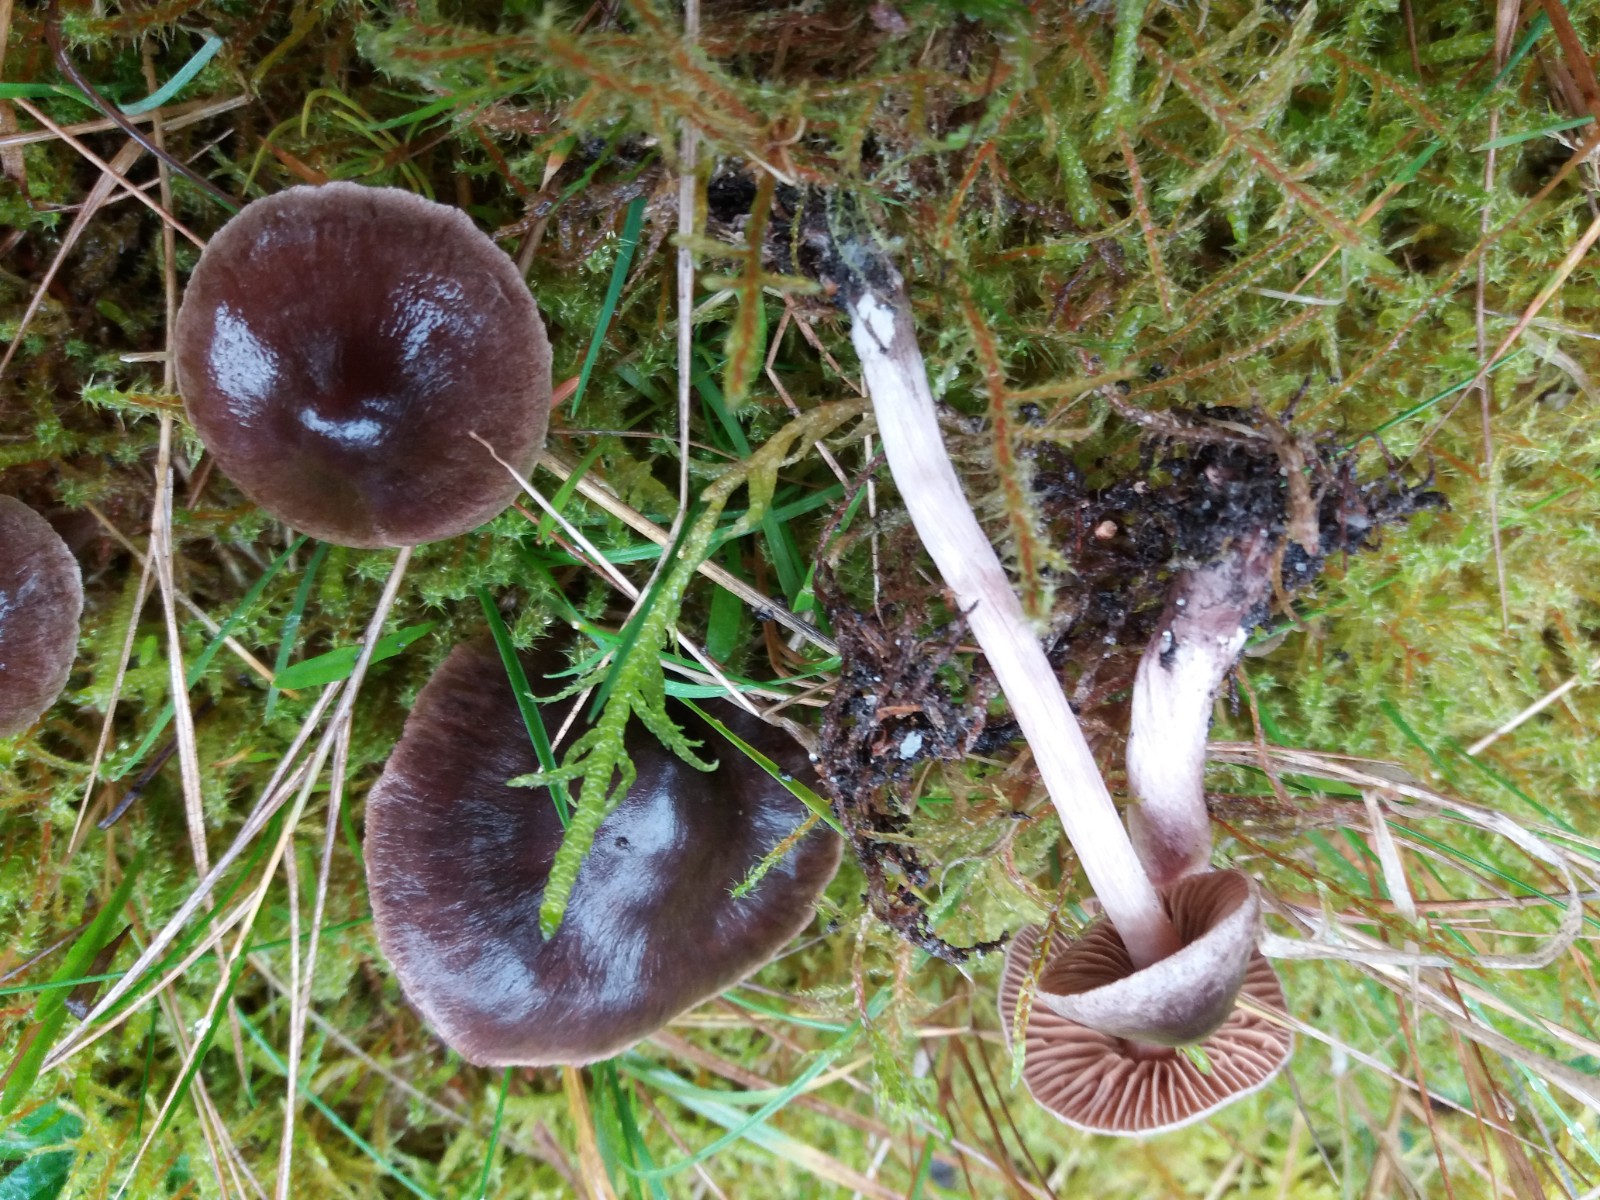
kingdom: Fungi
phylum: Basidiomycota
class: Agaricomycetes
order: Agaricales
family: Cortinariaceae
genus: Cortinarius
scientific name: Cortinarius vernus
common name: sommer-slørhat
